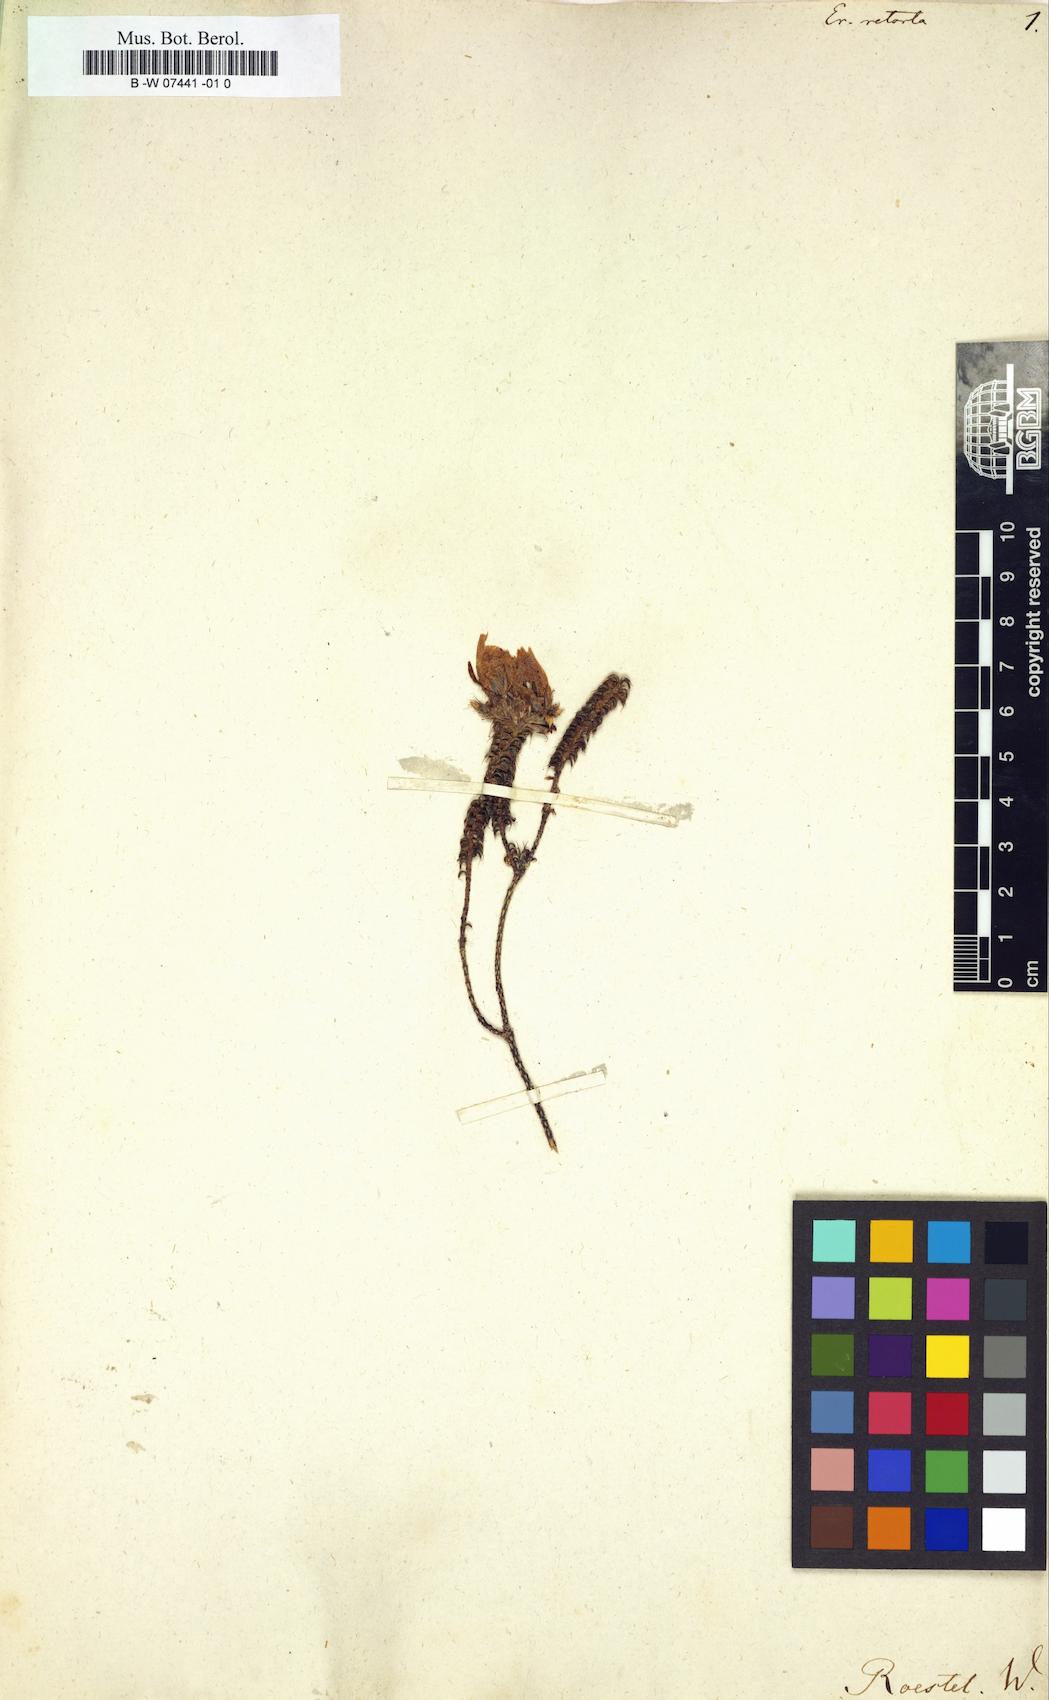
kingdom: Plantae
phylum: Tracheophyta
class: Magnoliopsida
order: Ericales
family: Ericaceae
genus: Erica
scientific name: Erica retorta
